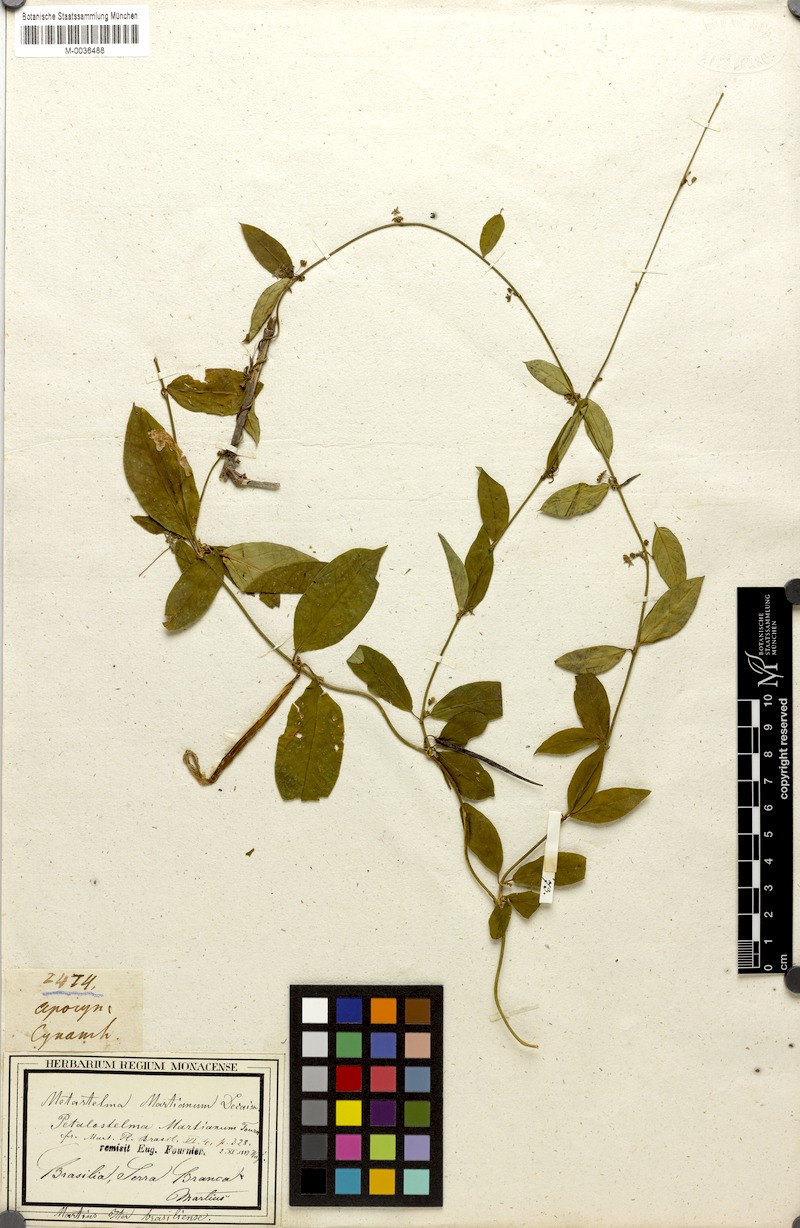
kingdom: Plantae
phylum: Tracheophyta
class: Magnoliopsida
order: Gentianales
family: Apocynaceae
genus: Petalostelma
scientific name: Petalostelma martianum
